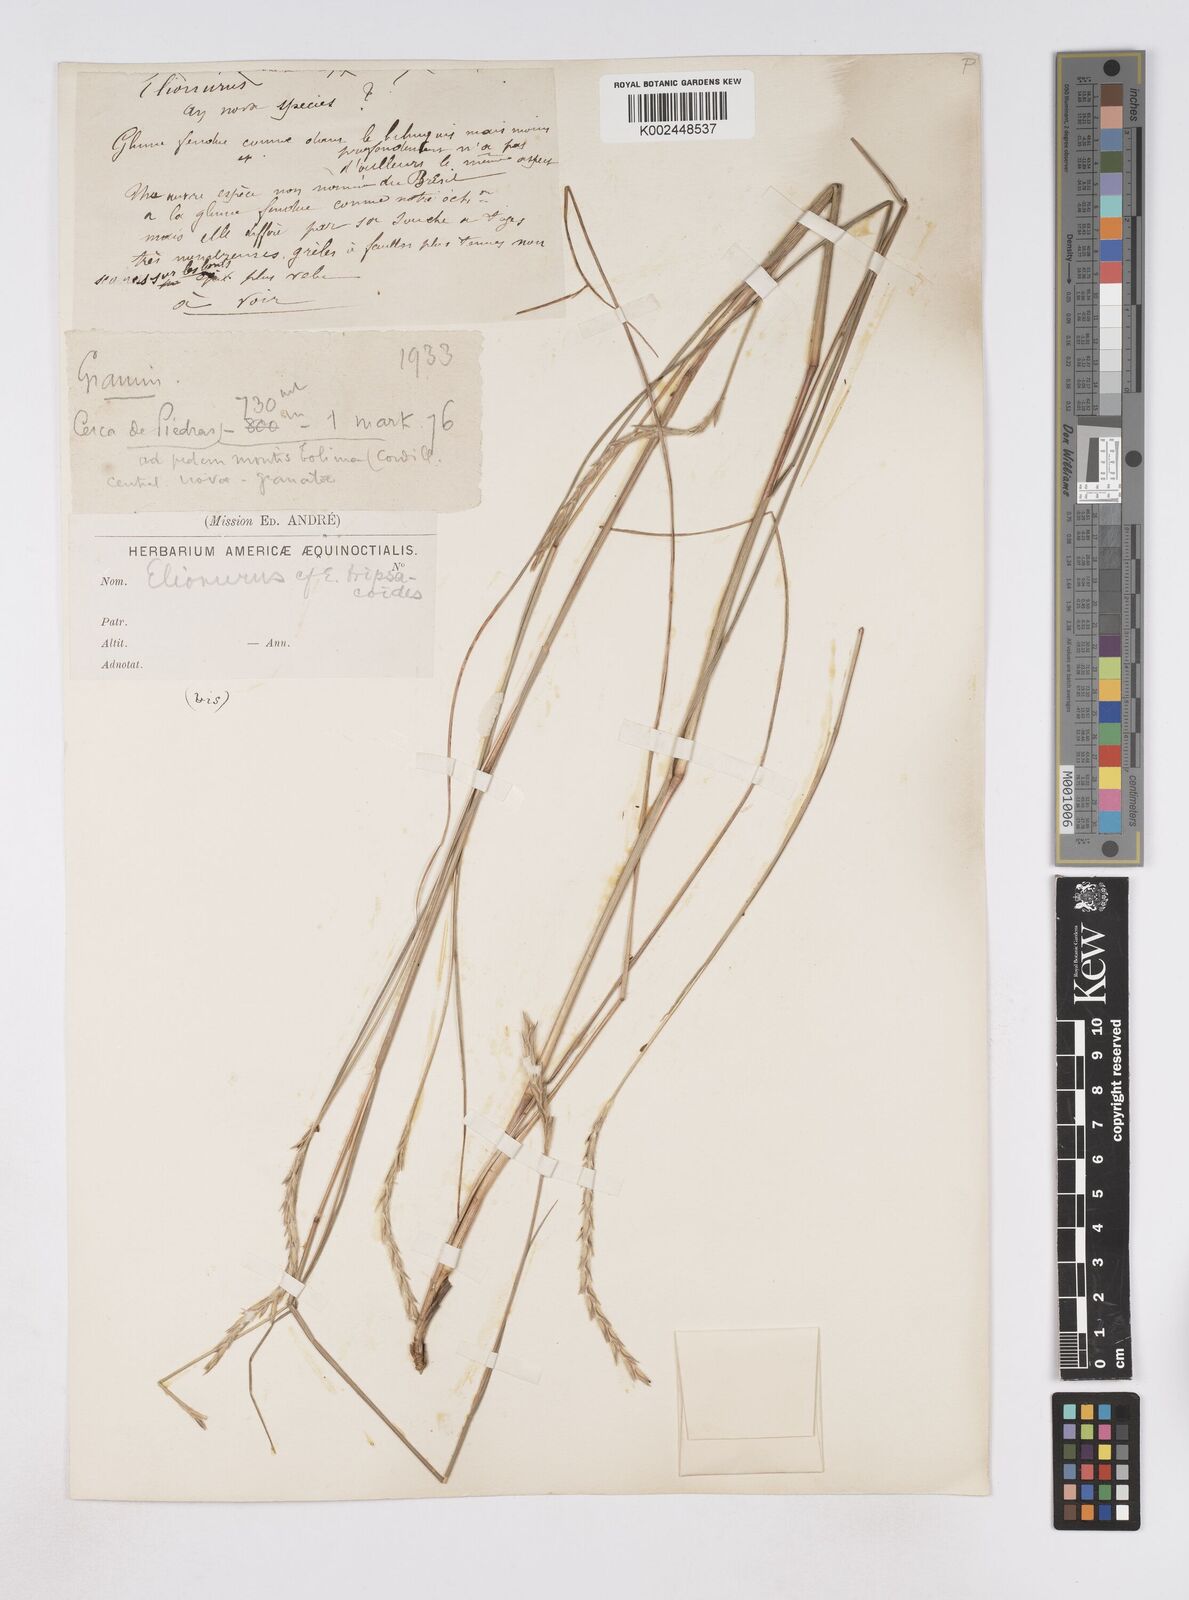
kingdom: Plantae
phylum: Tracheophyta
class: Liliopsida
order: Poales
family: Poaceae
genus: Elionurus
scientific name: Elionurus muticus
